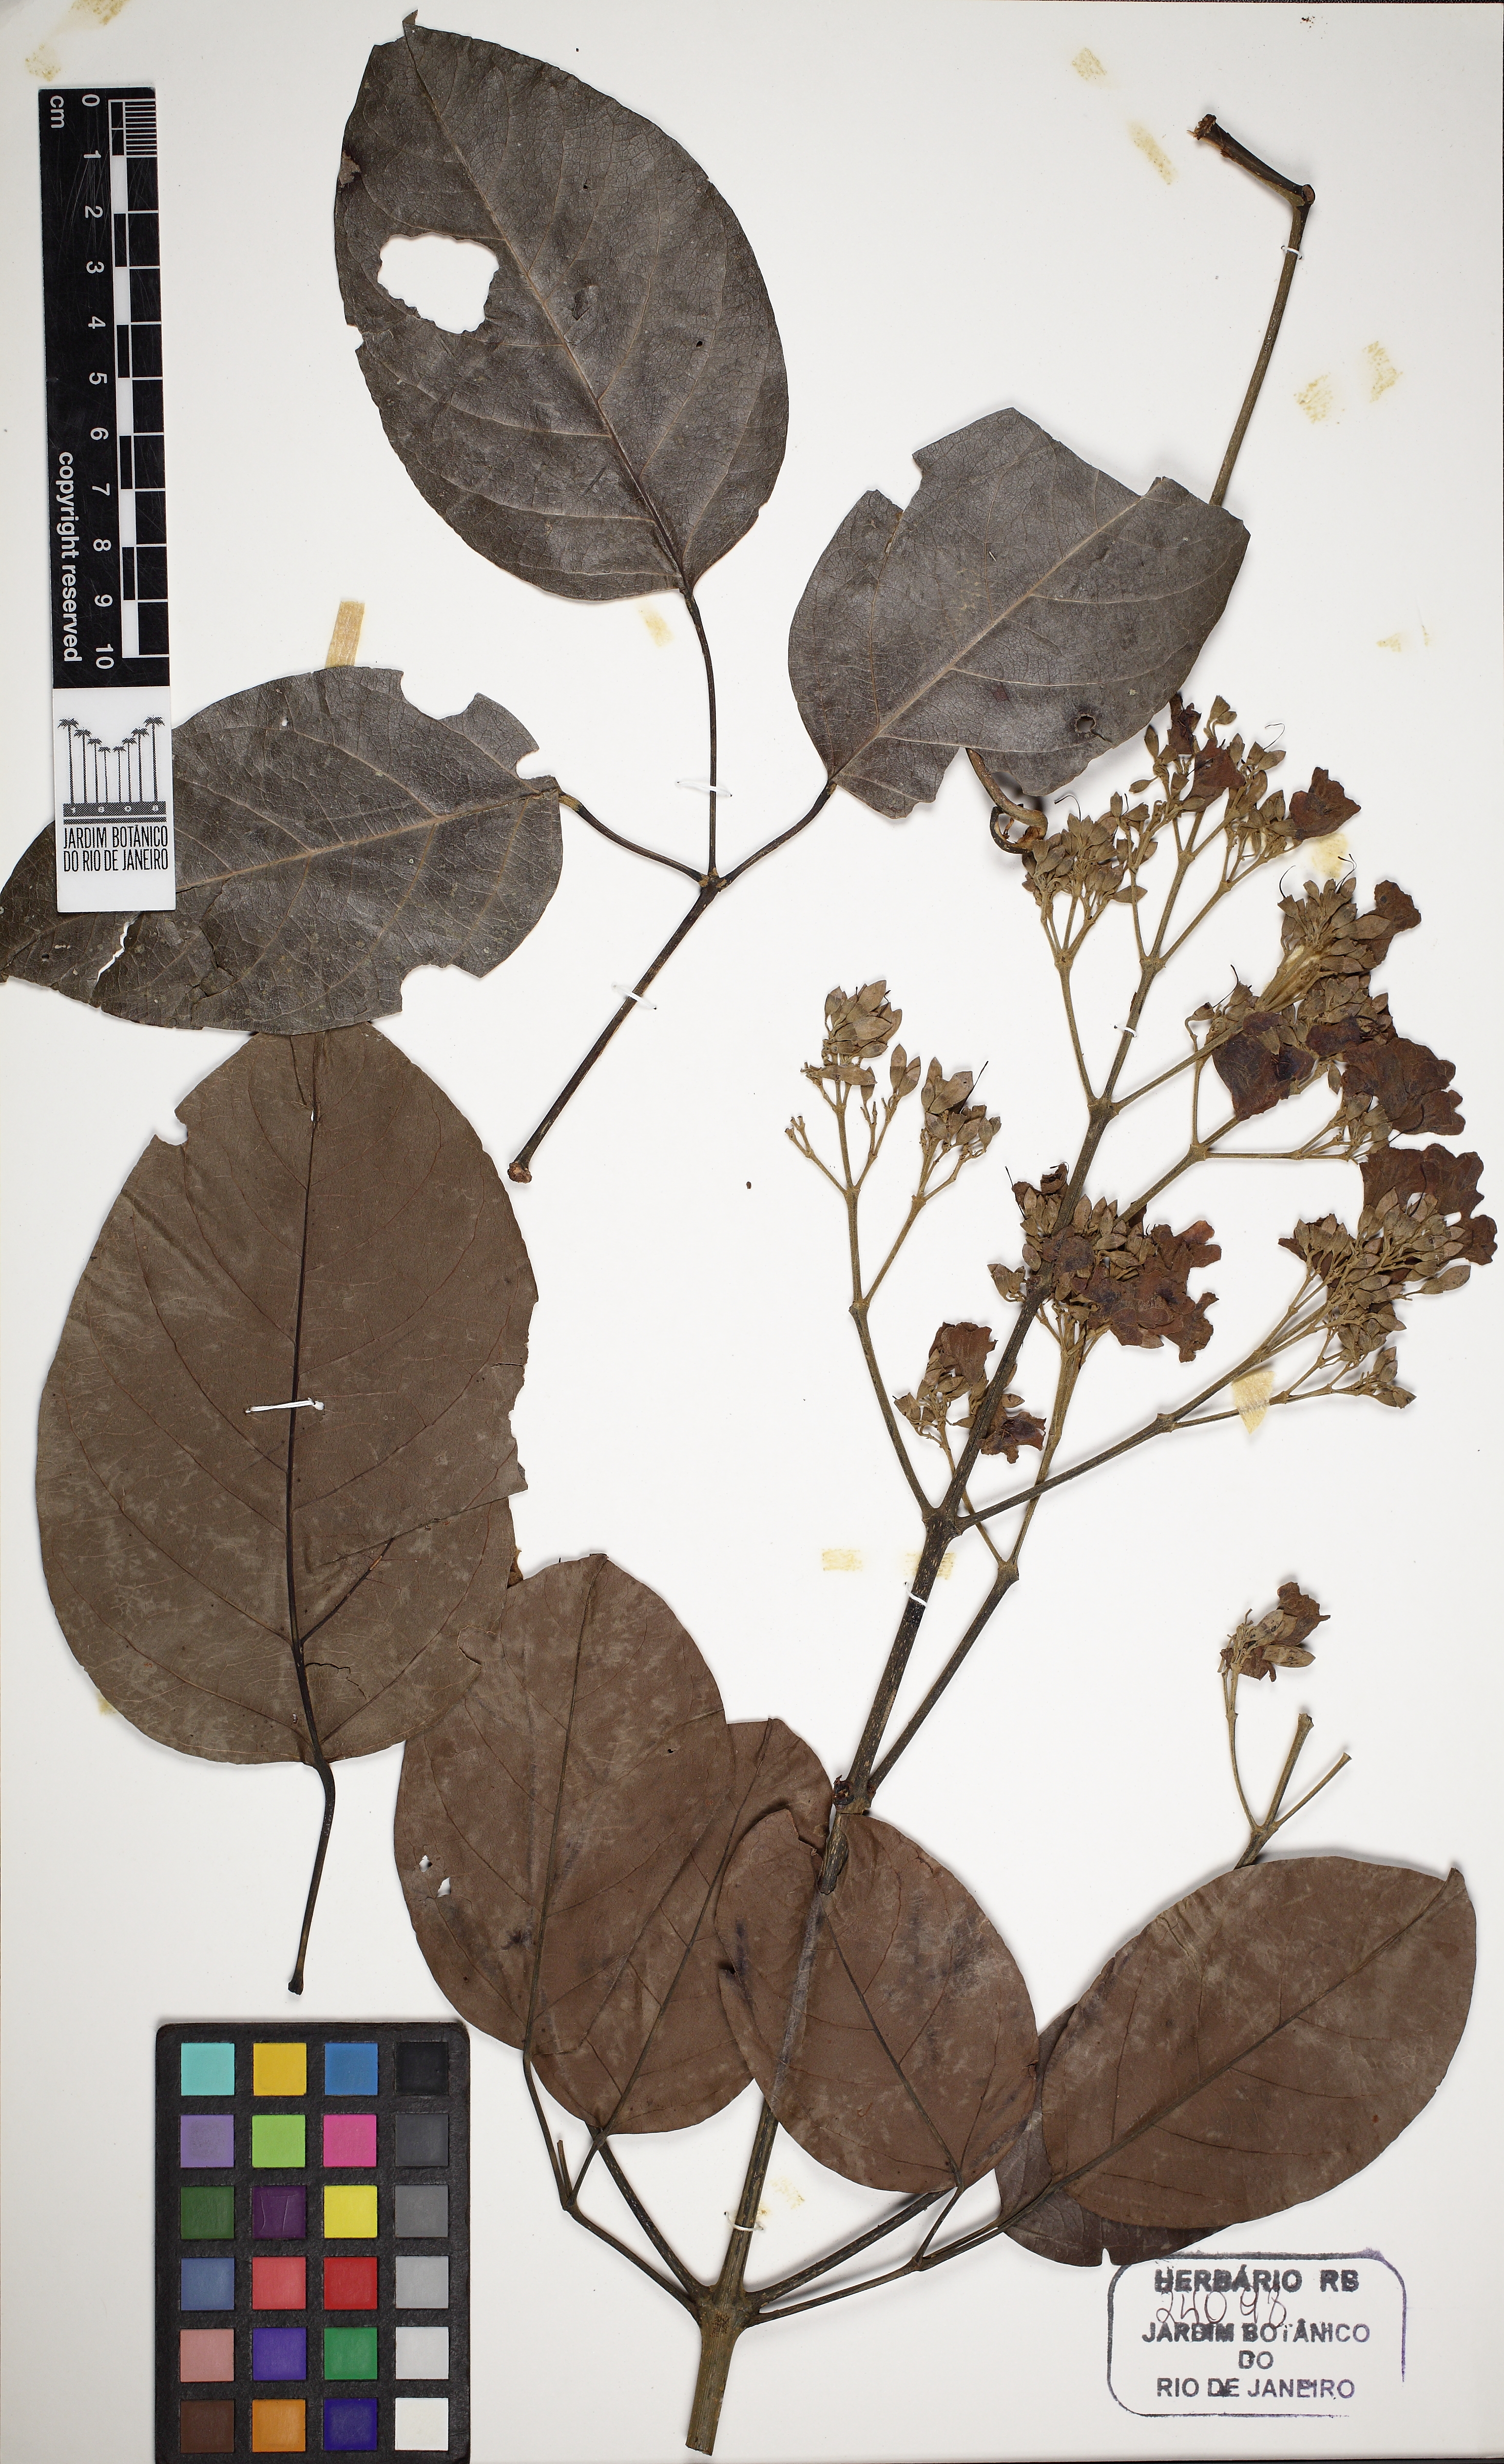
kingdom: Plantae
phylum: Tracheophyta
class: Magnoliopsida
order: Lamiales
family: Bignoniaceae
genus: Fridericia
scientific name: Fridericia florida
